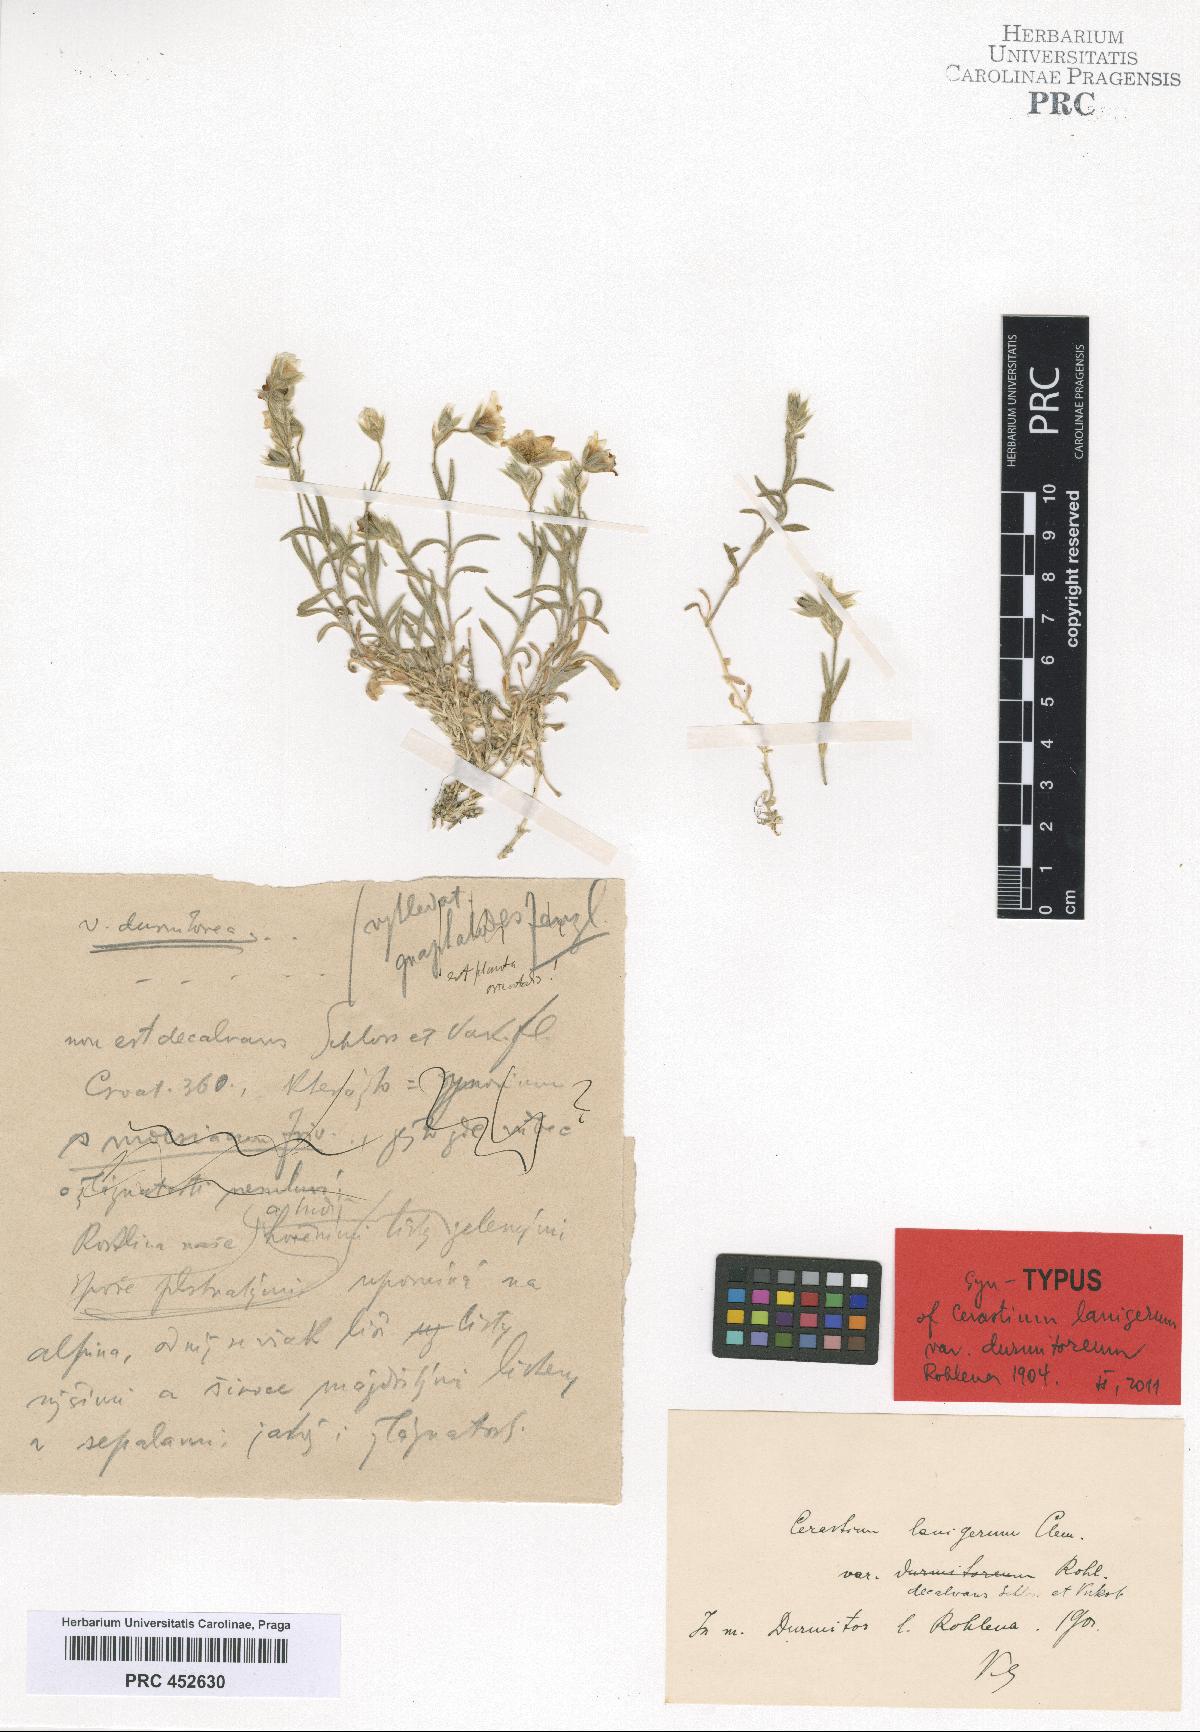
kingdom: Plantae
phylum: Tracheophyta
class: Magnoliopsida
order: Caryophyllales
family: Caryophyllaceae
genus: Cerastium
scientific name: Cerastium decalvans
